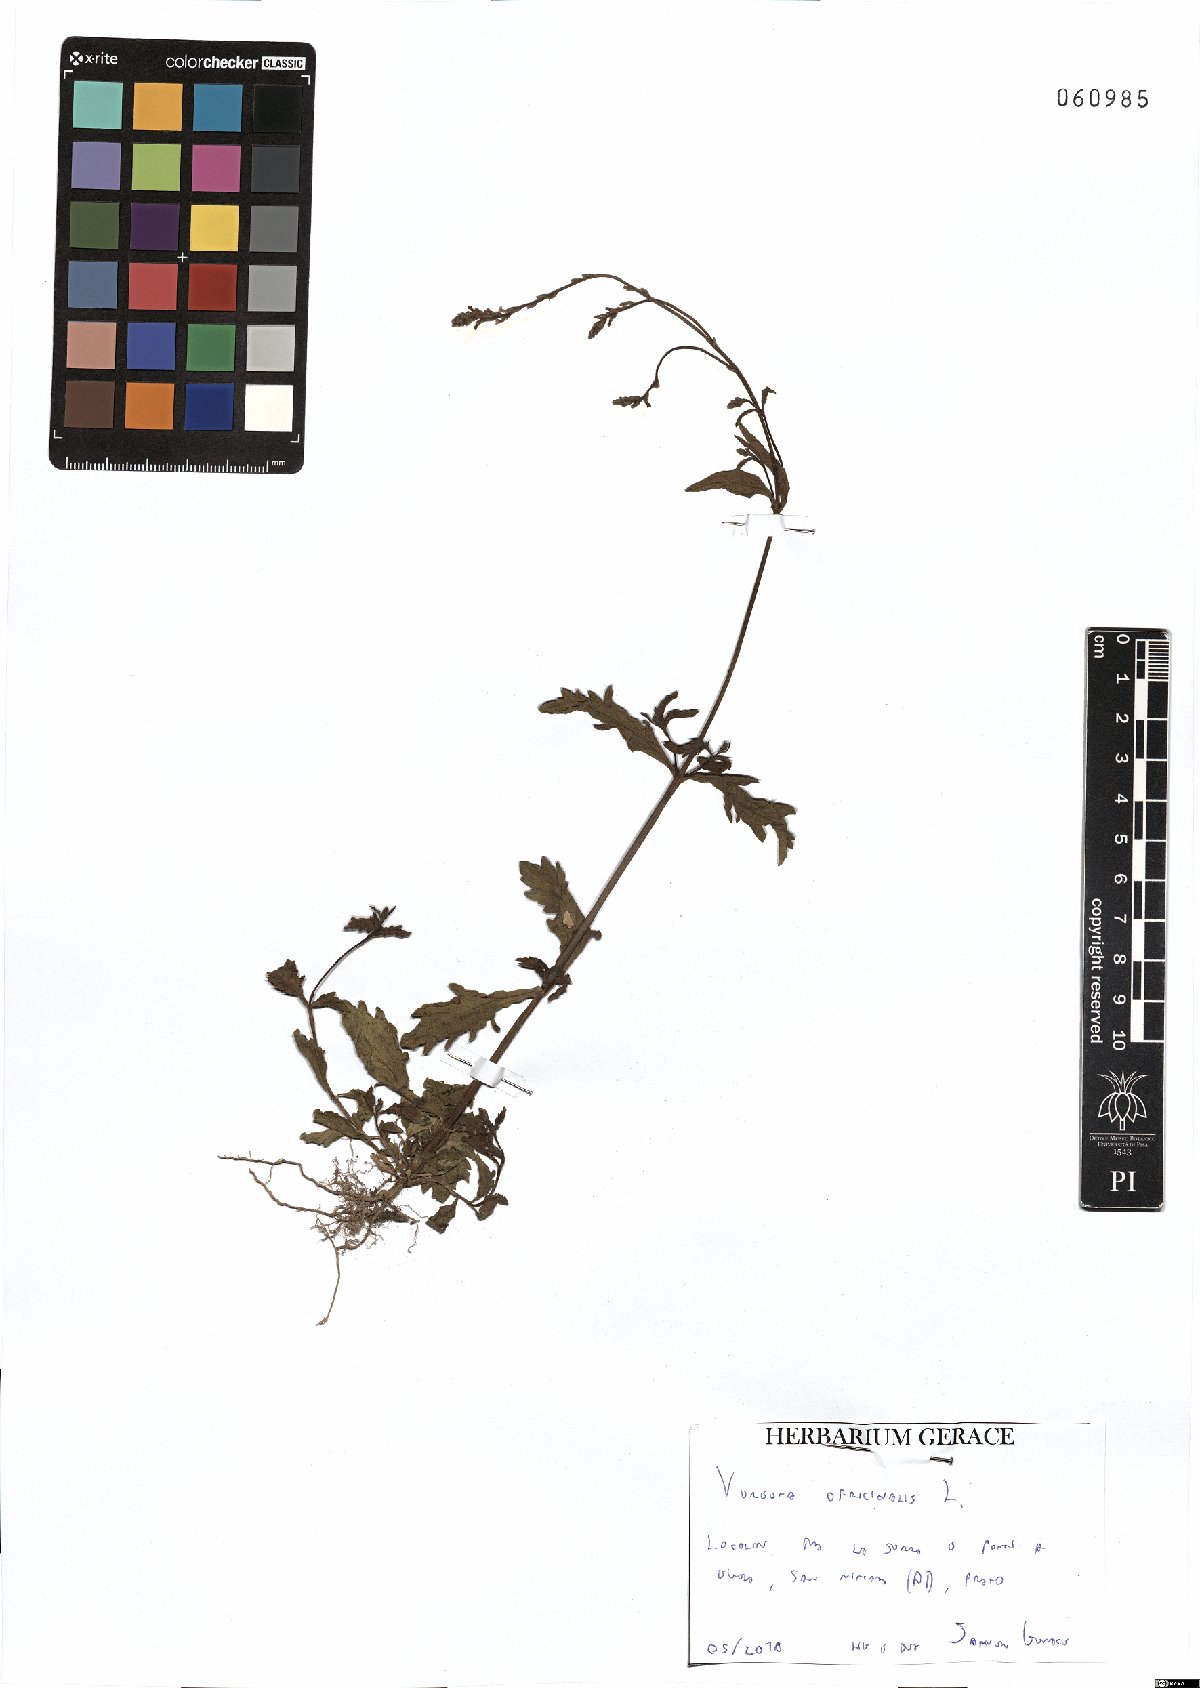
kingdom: Plantae
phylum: Tracheophyta
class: Magnoliopsida
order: Lamiales
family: Verbenaceae
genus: Verbena
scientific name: Verbena officinalis
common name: Vervain
